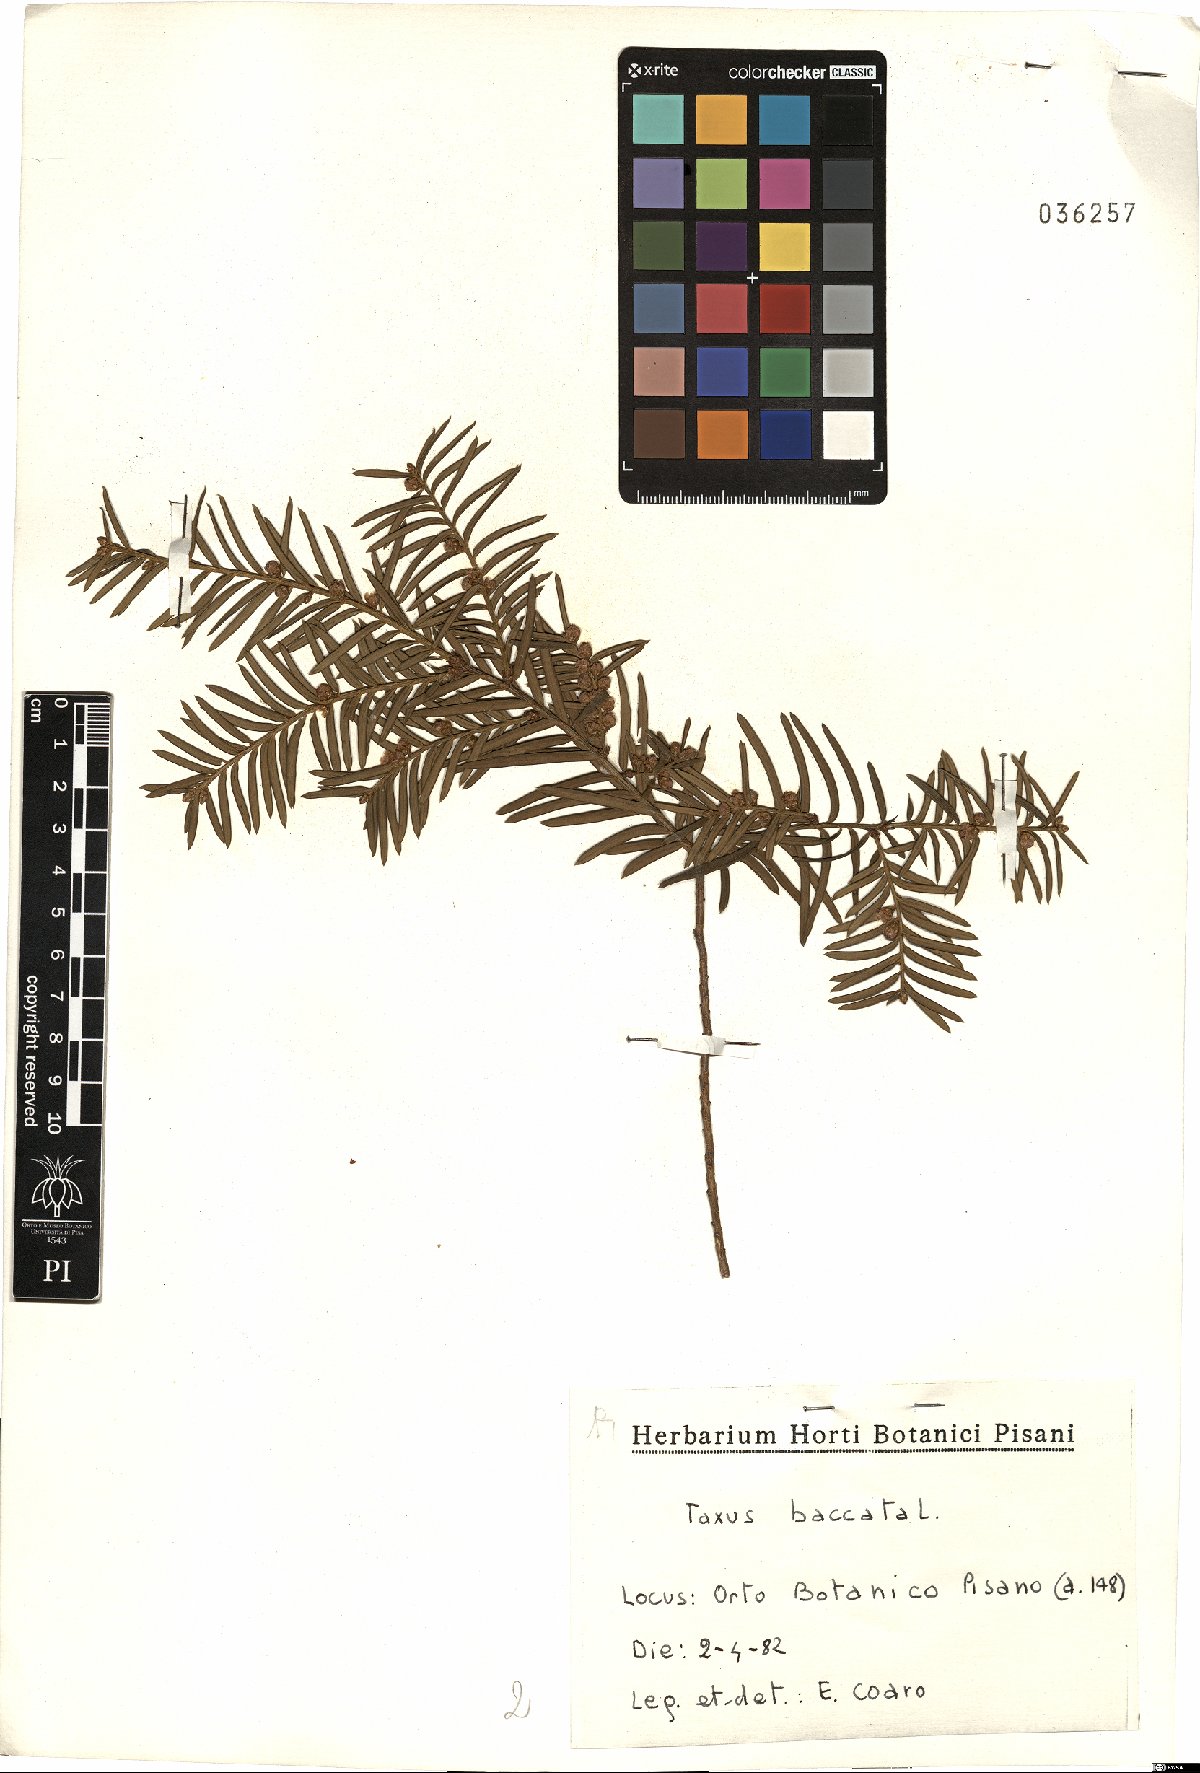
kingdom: Plantae
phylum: Tracheophyta
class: Pinopsida
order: Pinales
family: Taxaceae
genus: Taxus
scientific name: Taxus baccata
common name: Yew
